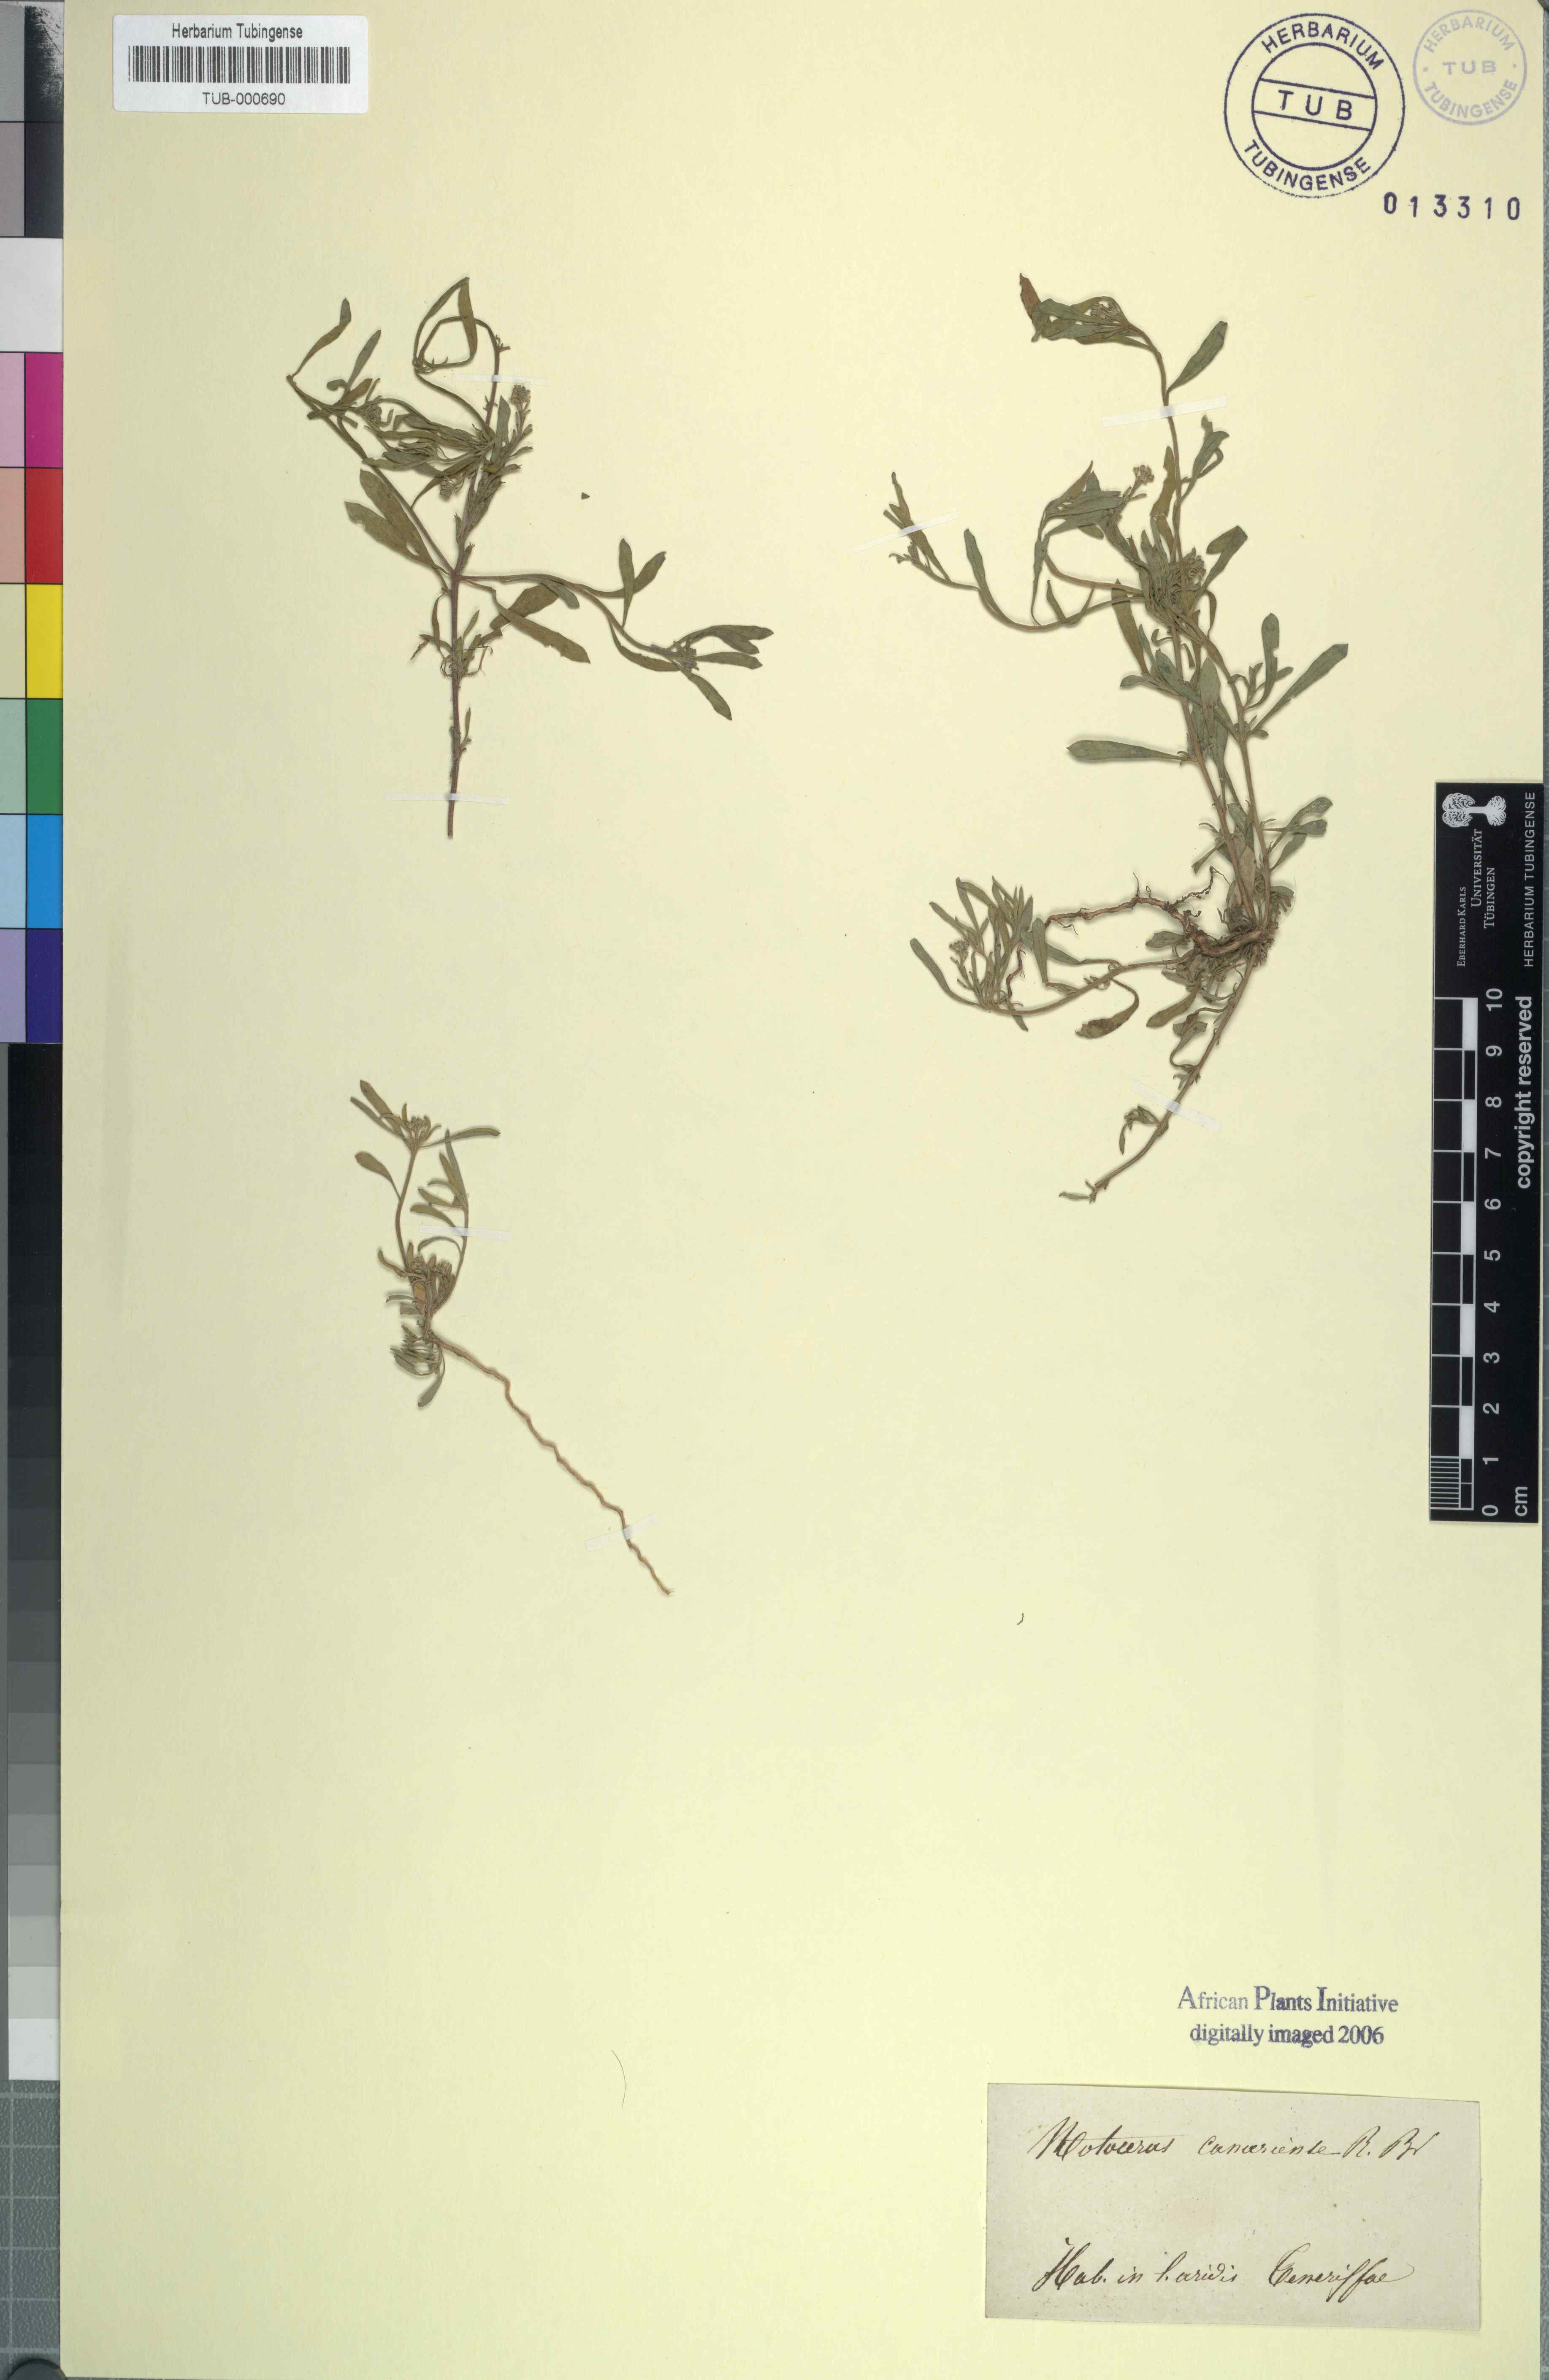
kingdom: Plantae
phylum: Tracheophyta
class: Magnoliopsida
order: Brassicales
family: Brassicaceae
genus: Notoceras
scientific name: Notoceras bicorne
